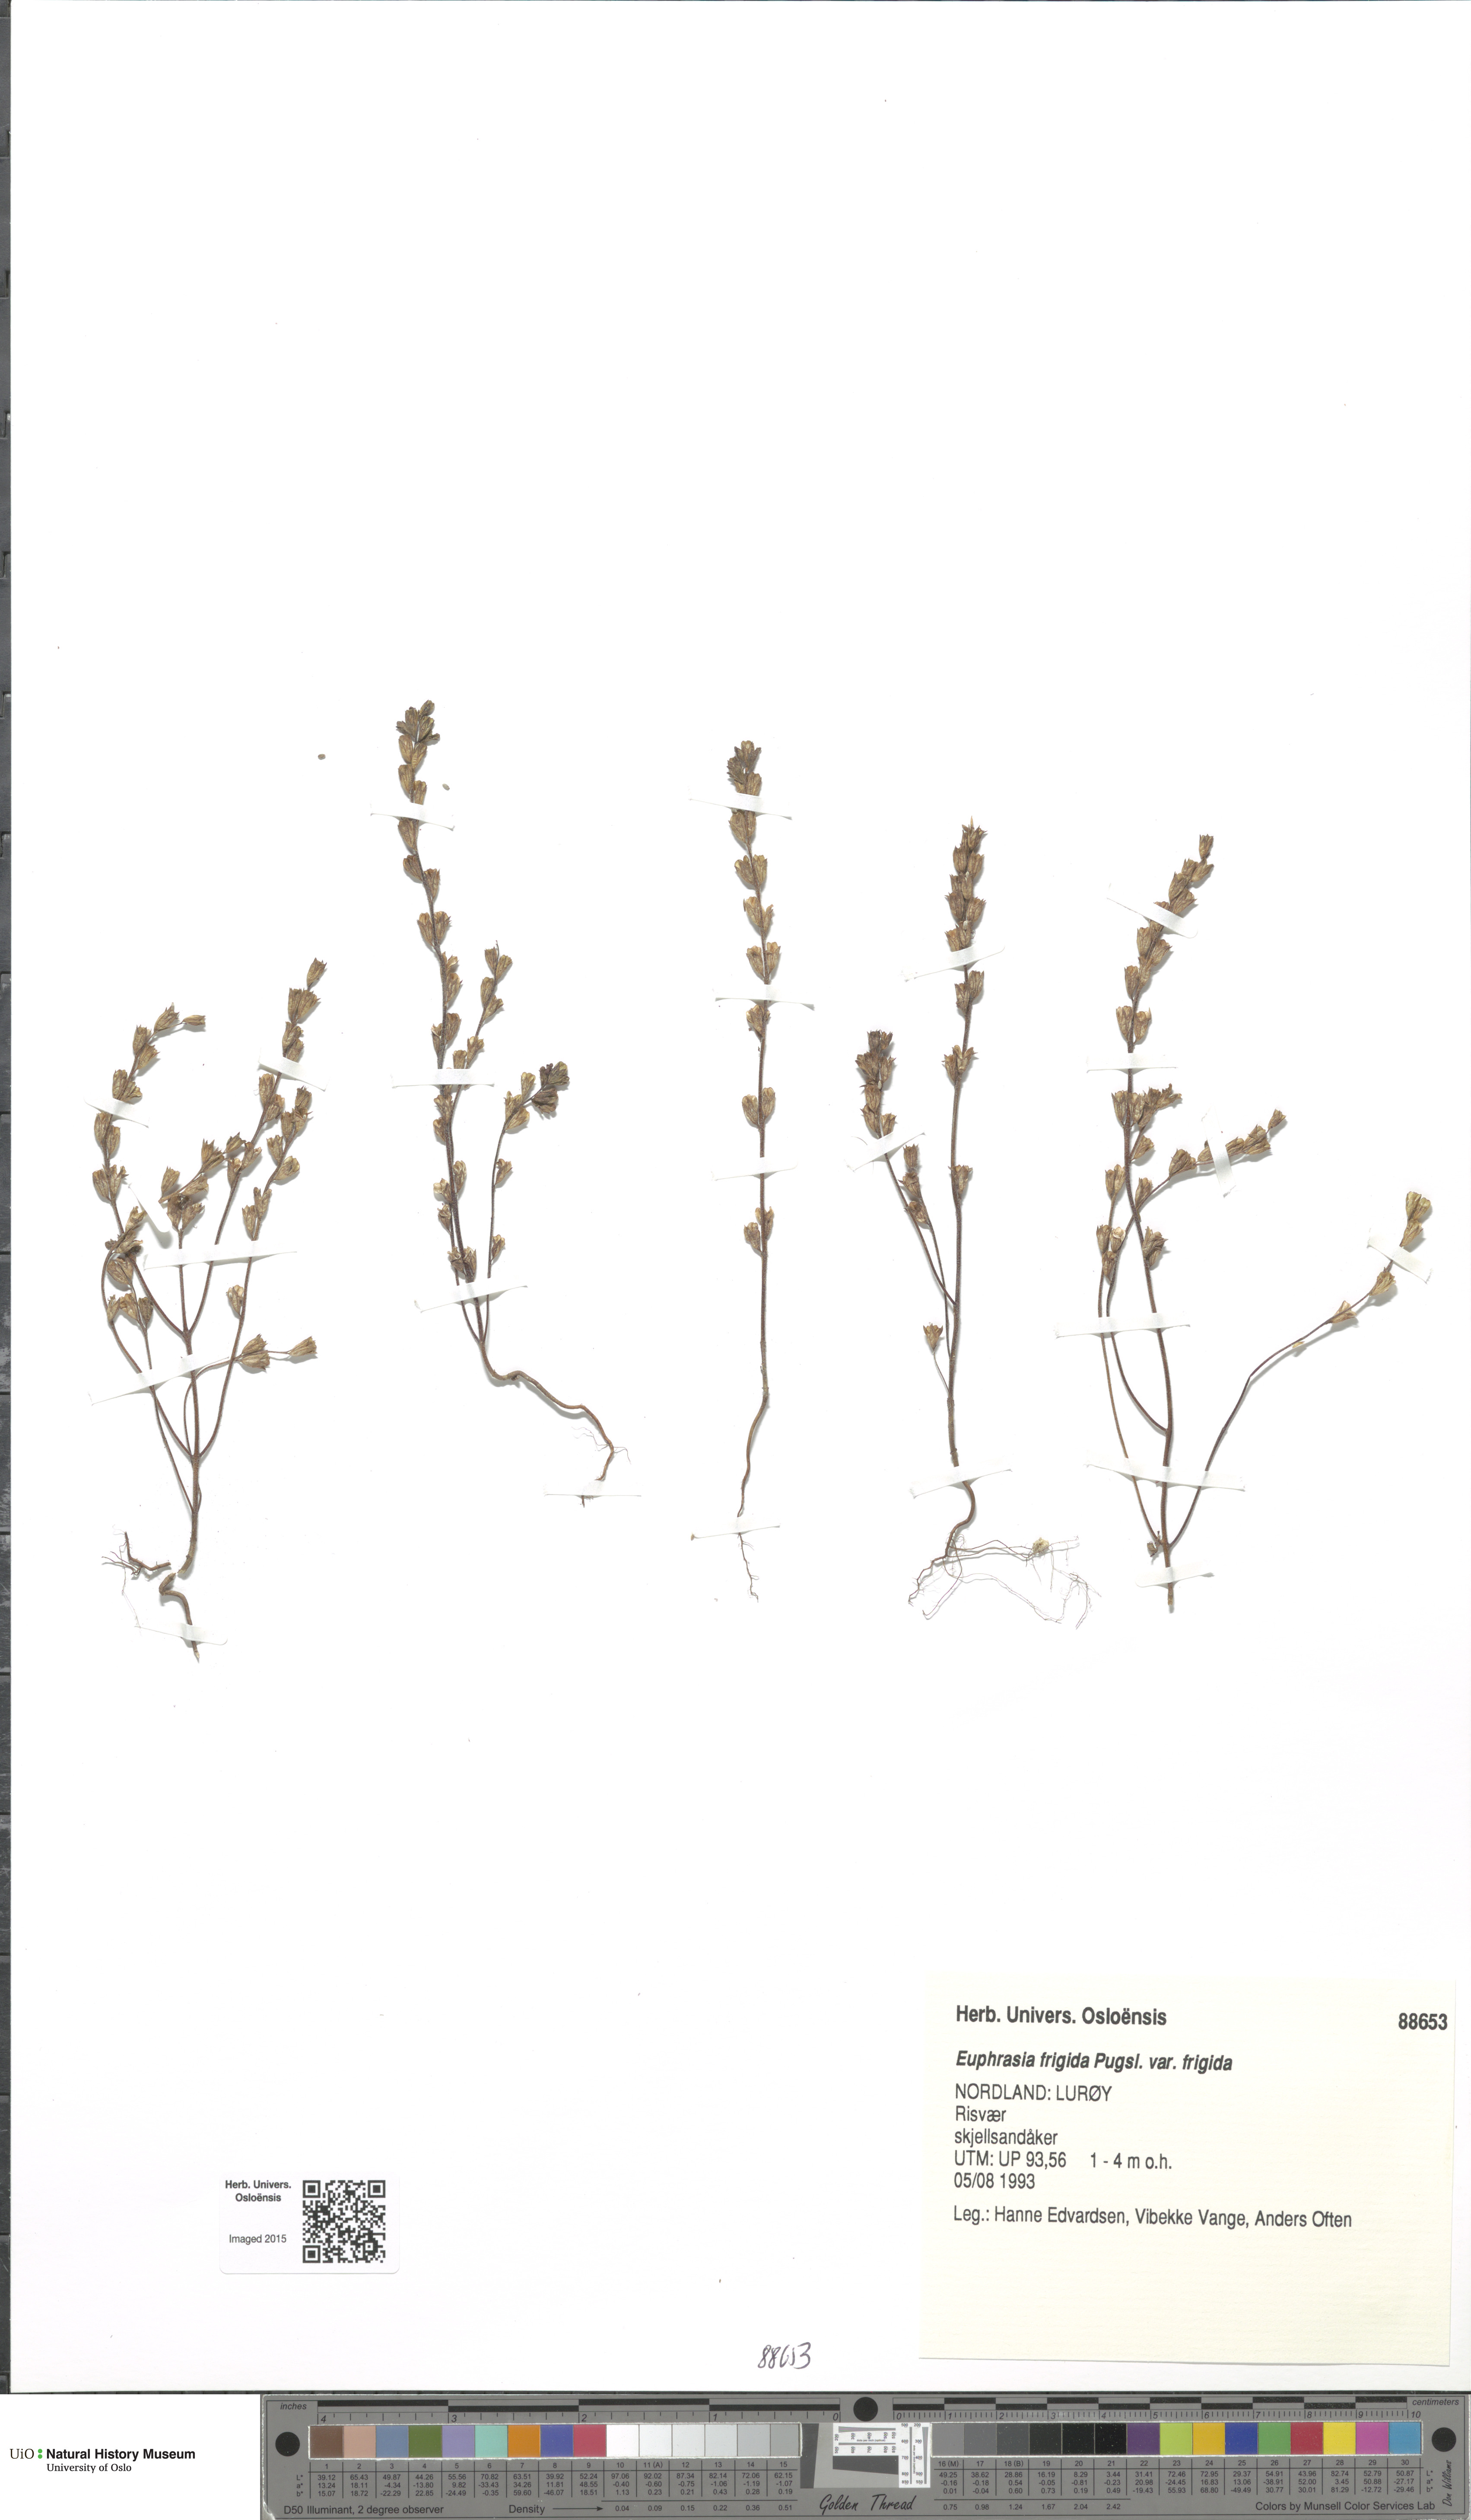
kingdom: Plantae
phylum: Tracheophyta
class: Magnoliopsida
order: Lamiales
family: Orobanchaceae
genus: Euphrasia
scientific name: Euphrasia wettsteinii
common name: Wettstein's eyebright
